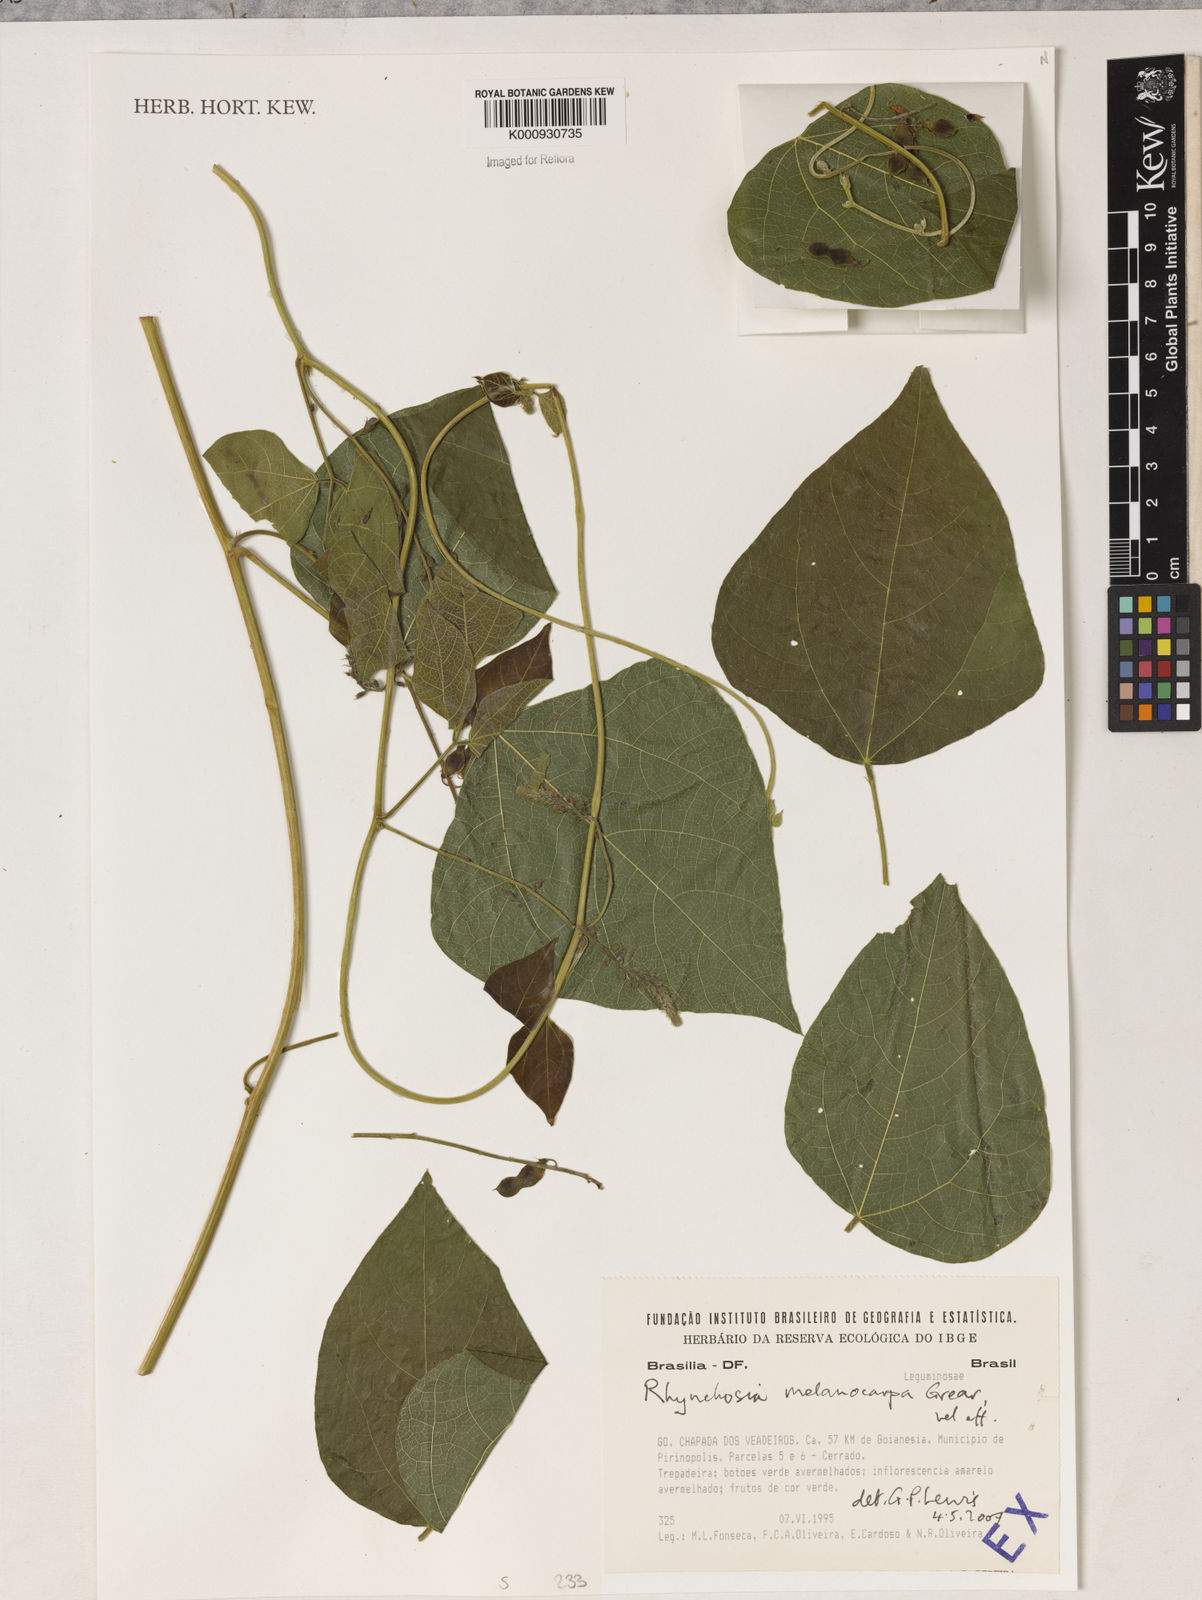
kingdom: Plantae
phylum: Tracheophyta
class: Magnoliopsida
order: Fabales
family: Fabaceae
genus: Rhynchosia
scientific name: Rhynchosia melanocarpa
